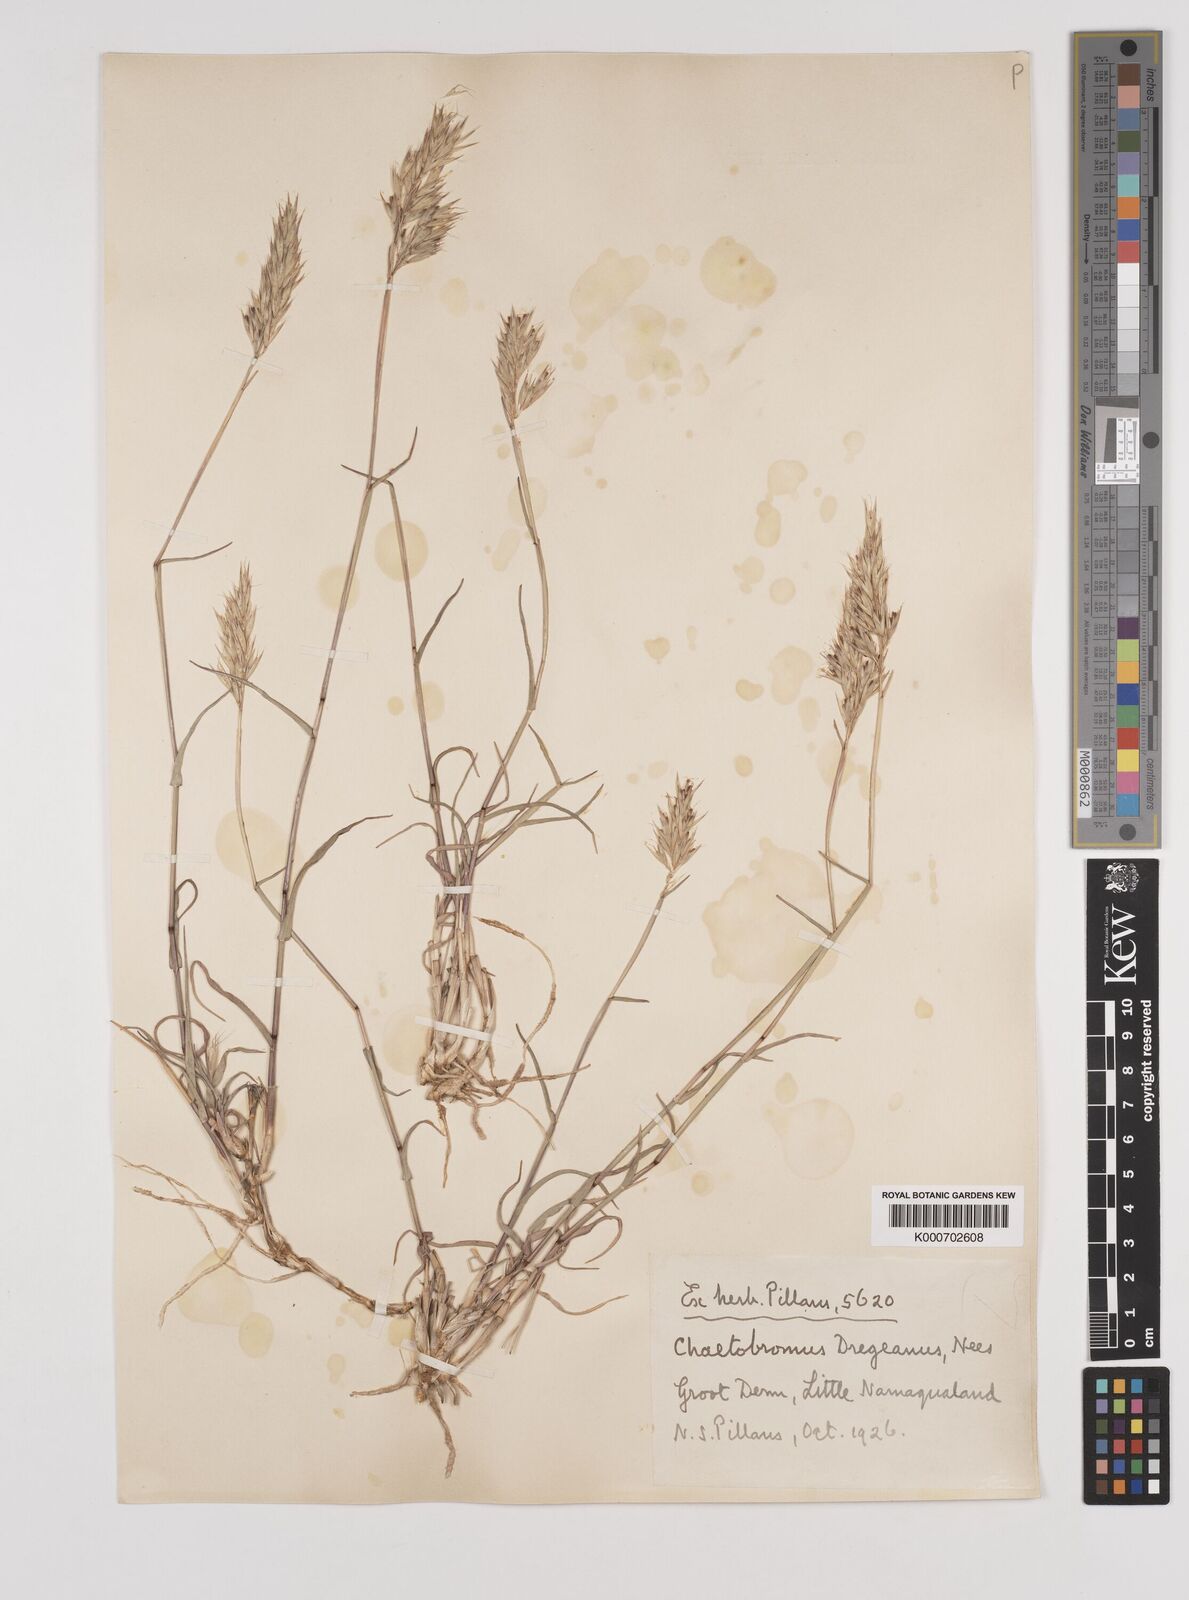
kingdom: Plantae
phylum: Tracheophyta
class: Liliopsida
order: Poales
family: Poaceae
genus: Chaetobromus
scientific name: Chaetobromus involucratus
